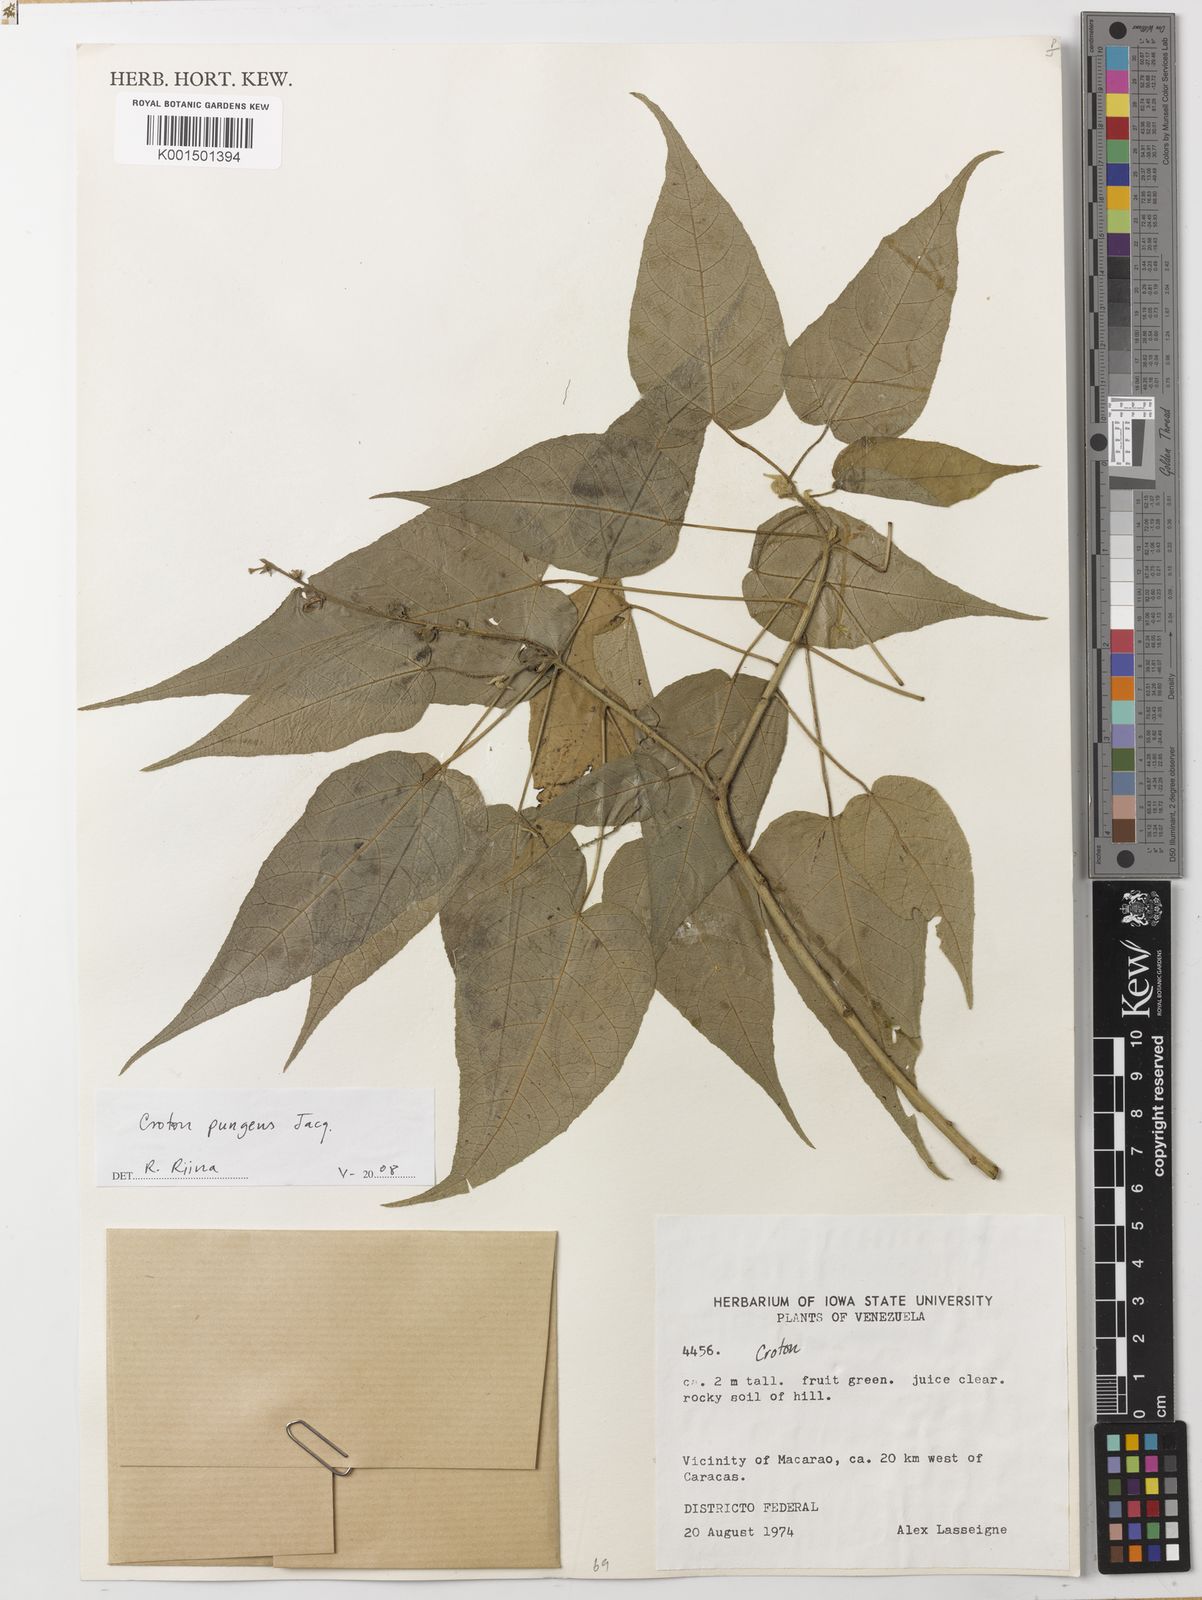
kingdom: Plantae
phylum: Tracheophyta
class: Magnoliopsida
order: Malpighiales
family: Euphorbiaceae
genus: Croton
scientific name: Croton pungens
